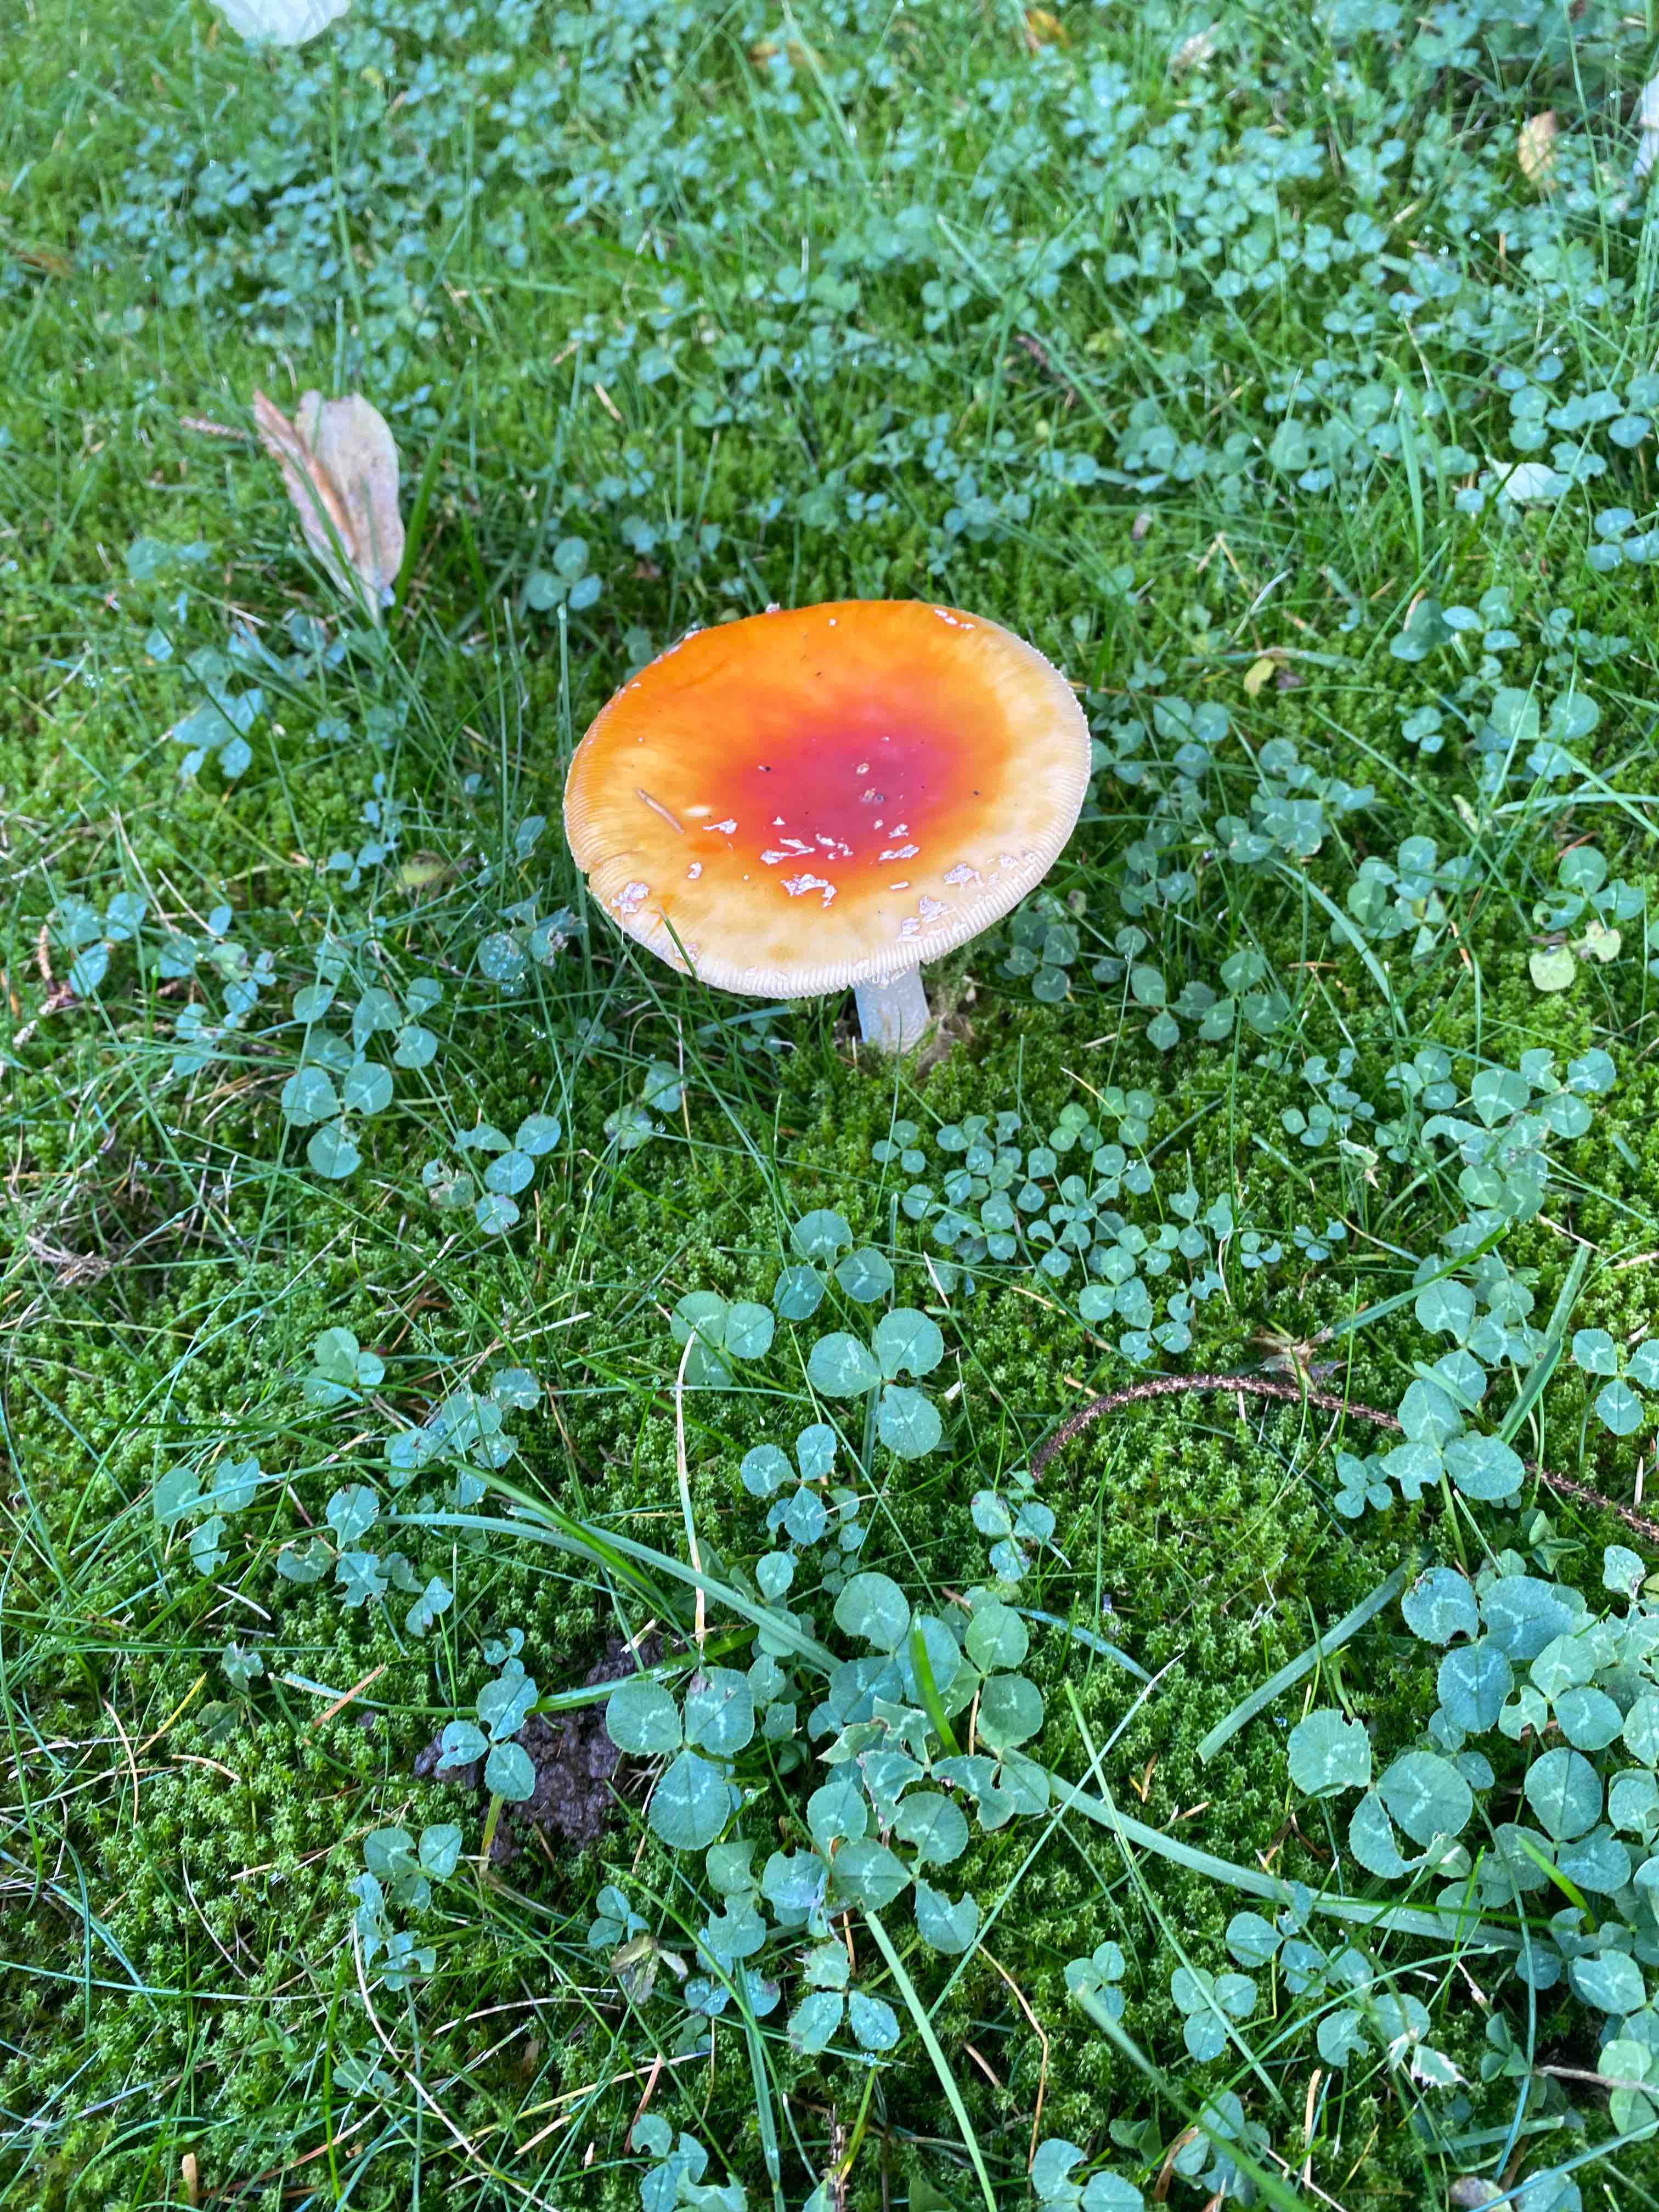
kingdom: Fungi
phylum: Basidiomycota
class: Agaricomycetes
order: Agaricales
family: Amanitaceae
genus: Amanita
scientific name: Amanita muscaria
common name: rød fluesvamp
